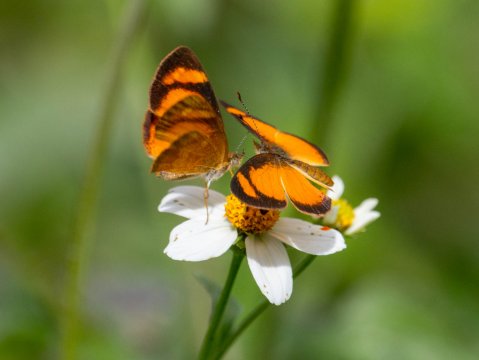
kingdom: Animalia
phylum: Arthropoda
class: Insecta
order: Lepidoptera
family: Nymphalidae
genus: Tegosa
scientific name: Tegosa claudina
